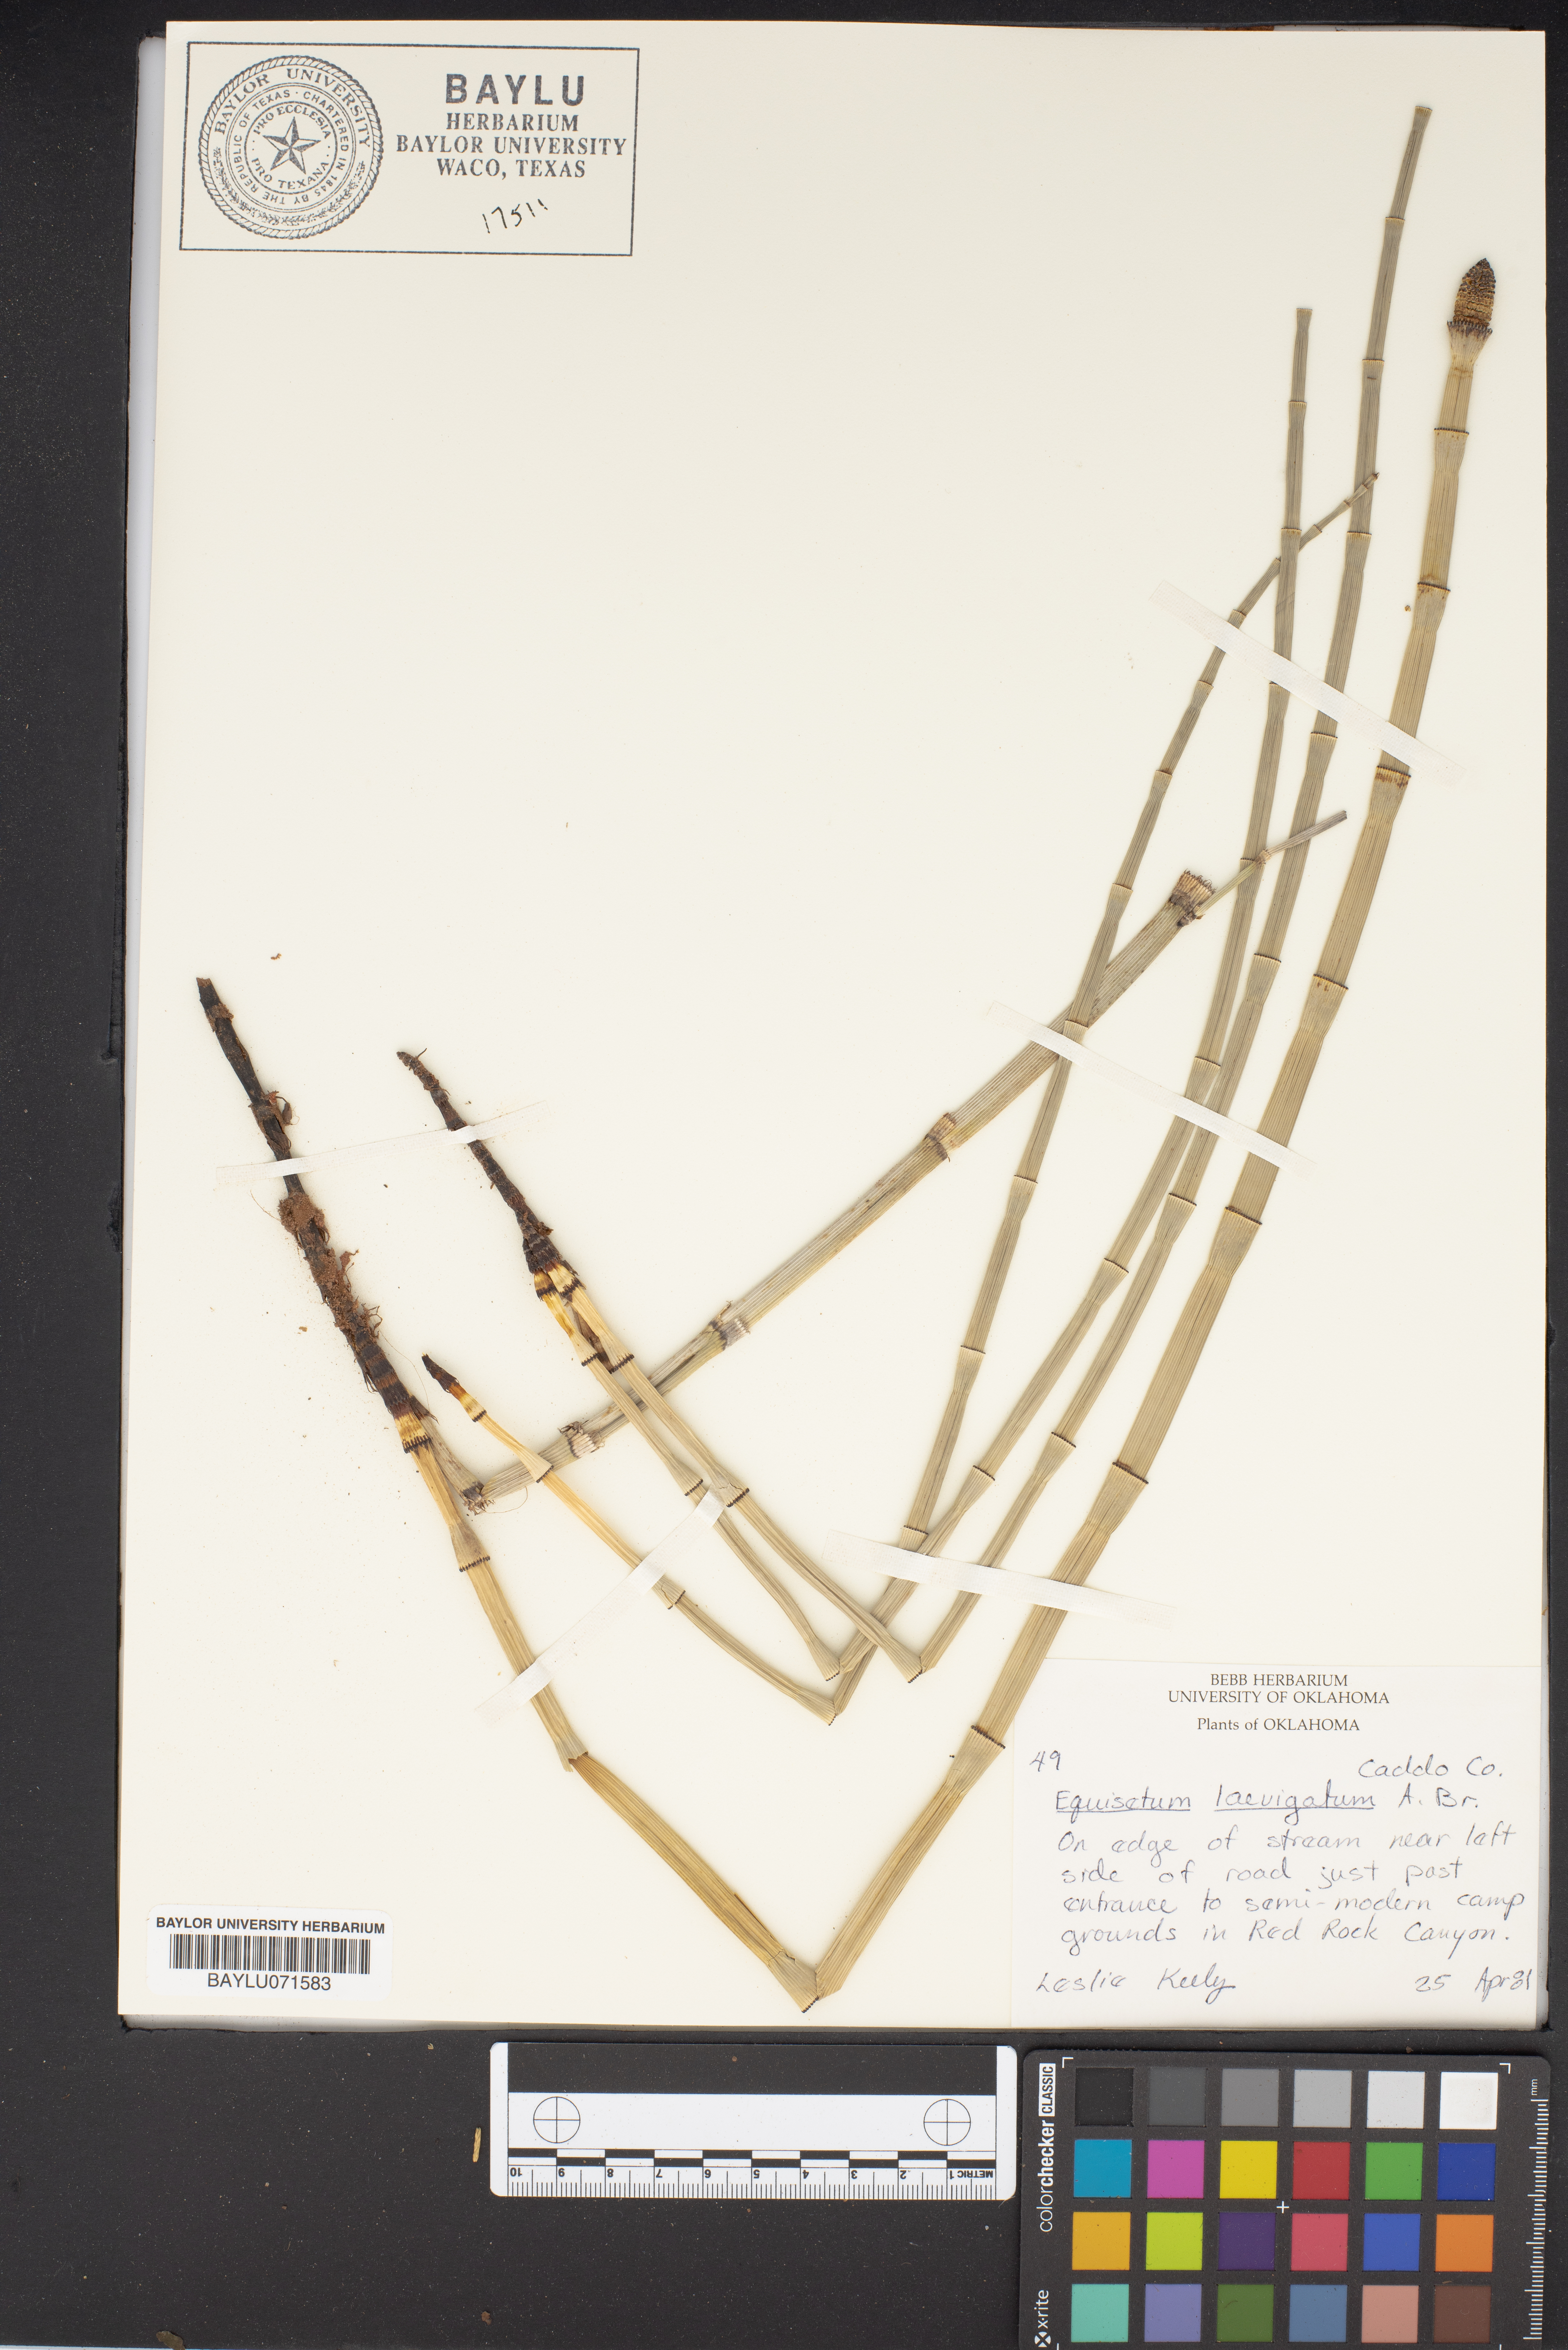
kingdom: Plantae
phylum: Tracheophyta
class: Polypodiopsida
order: Equisetales
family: Equisetaceae
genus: Equisetum
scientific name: Equisetum laevigatum
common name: Smooth scouring-rush
